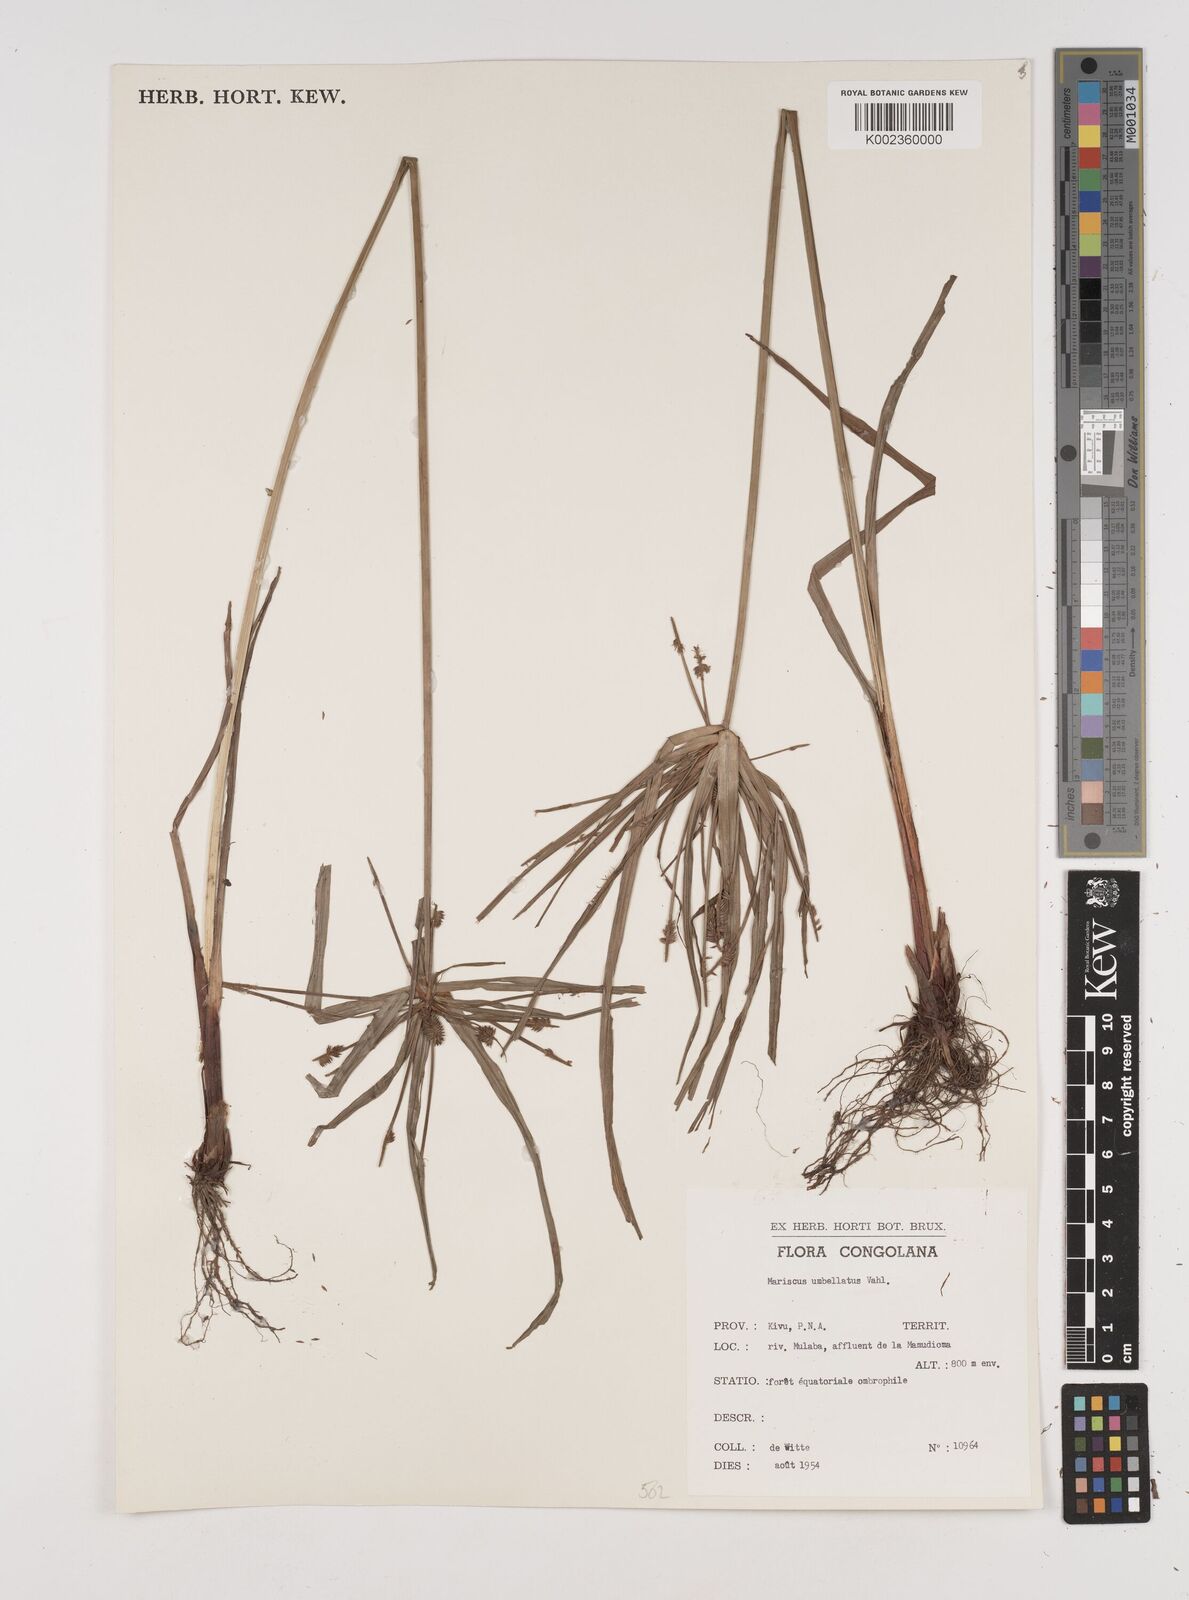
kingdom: Plantae
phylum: Tracheophyta
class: Liliopsida
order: Poales
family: Cyperaceae
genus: Cyperus
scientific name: Cyperus cyperoides
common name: Pacific island flat sedge
